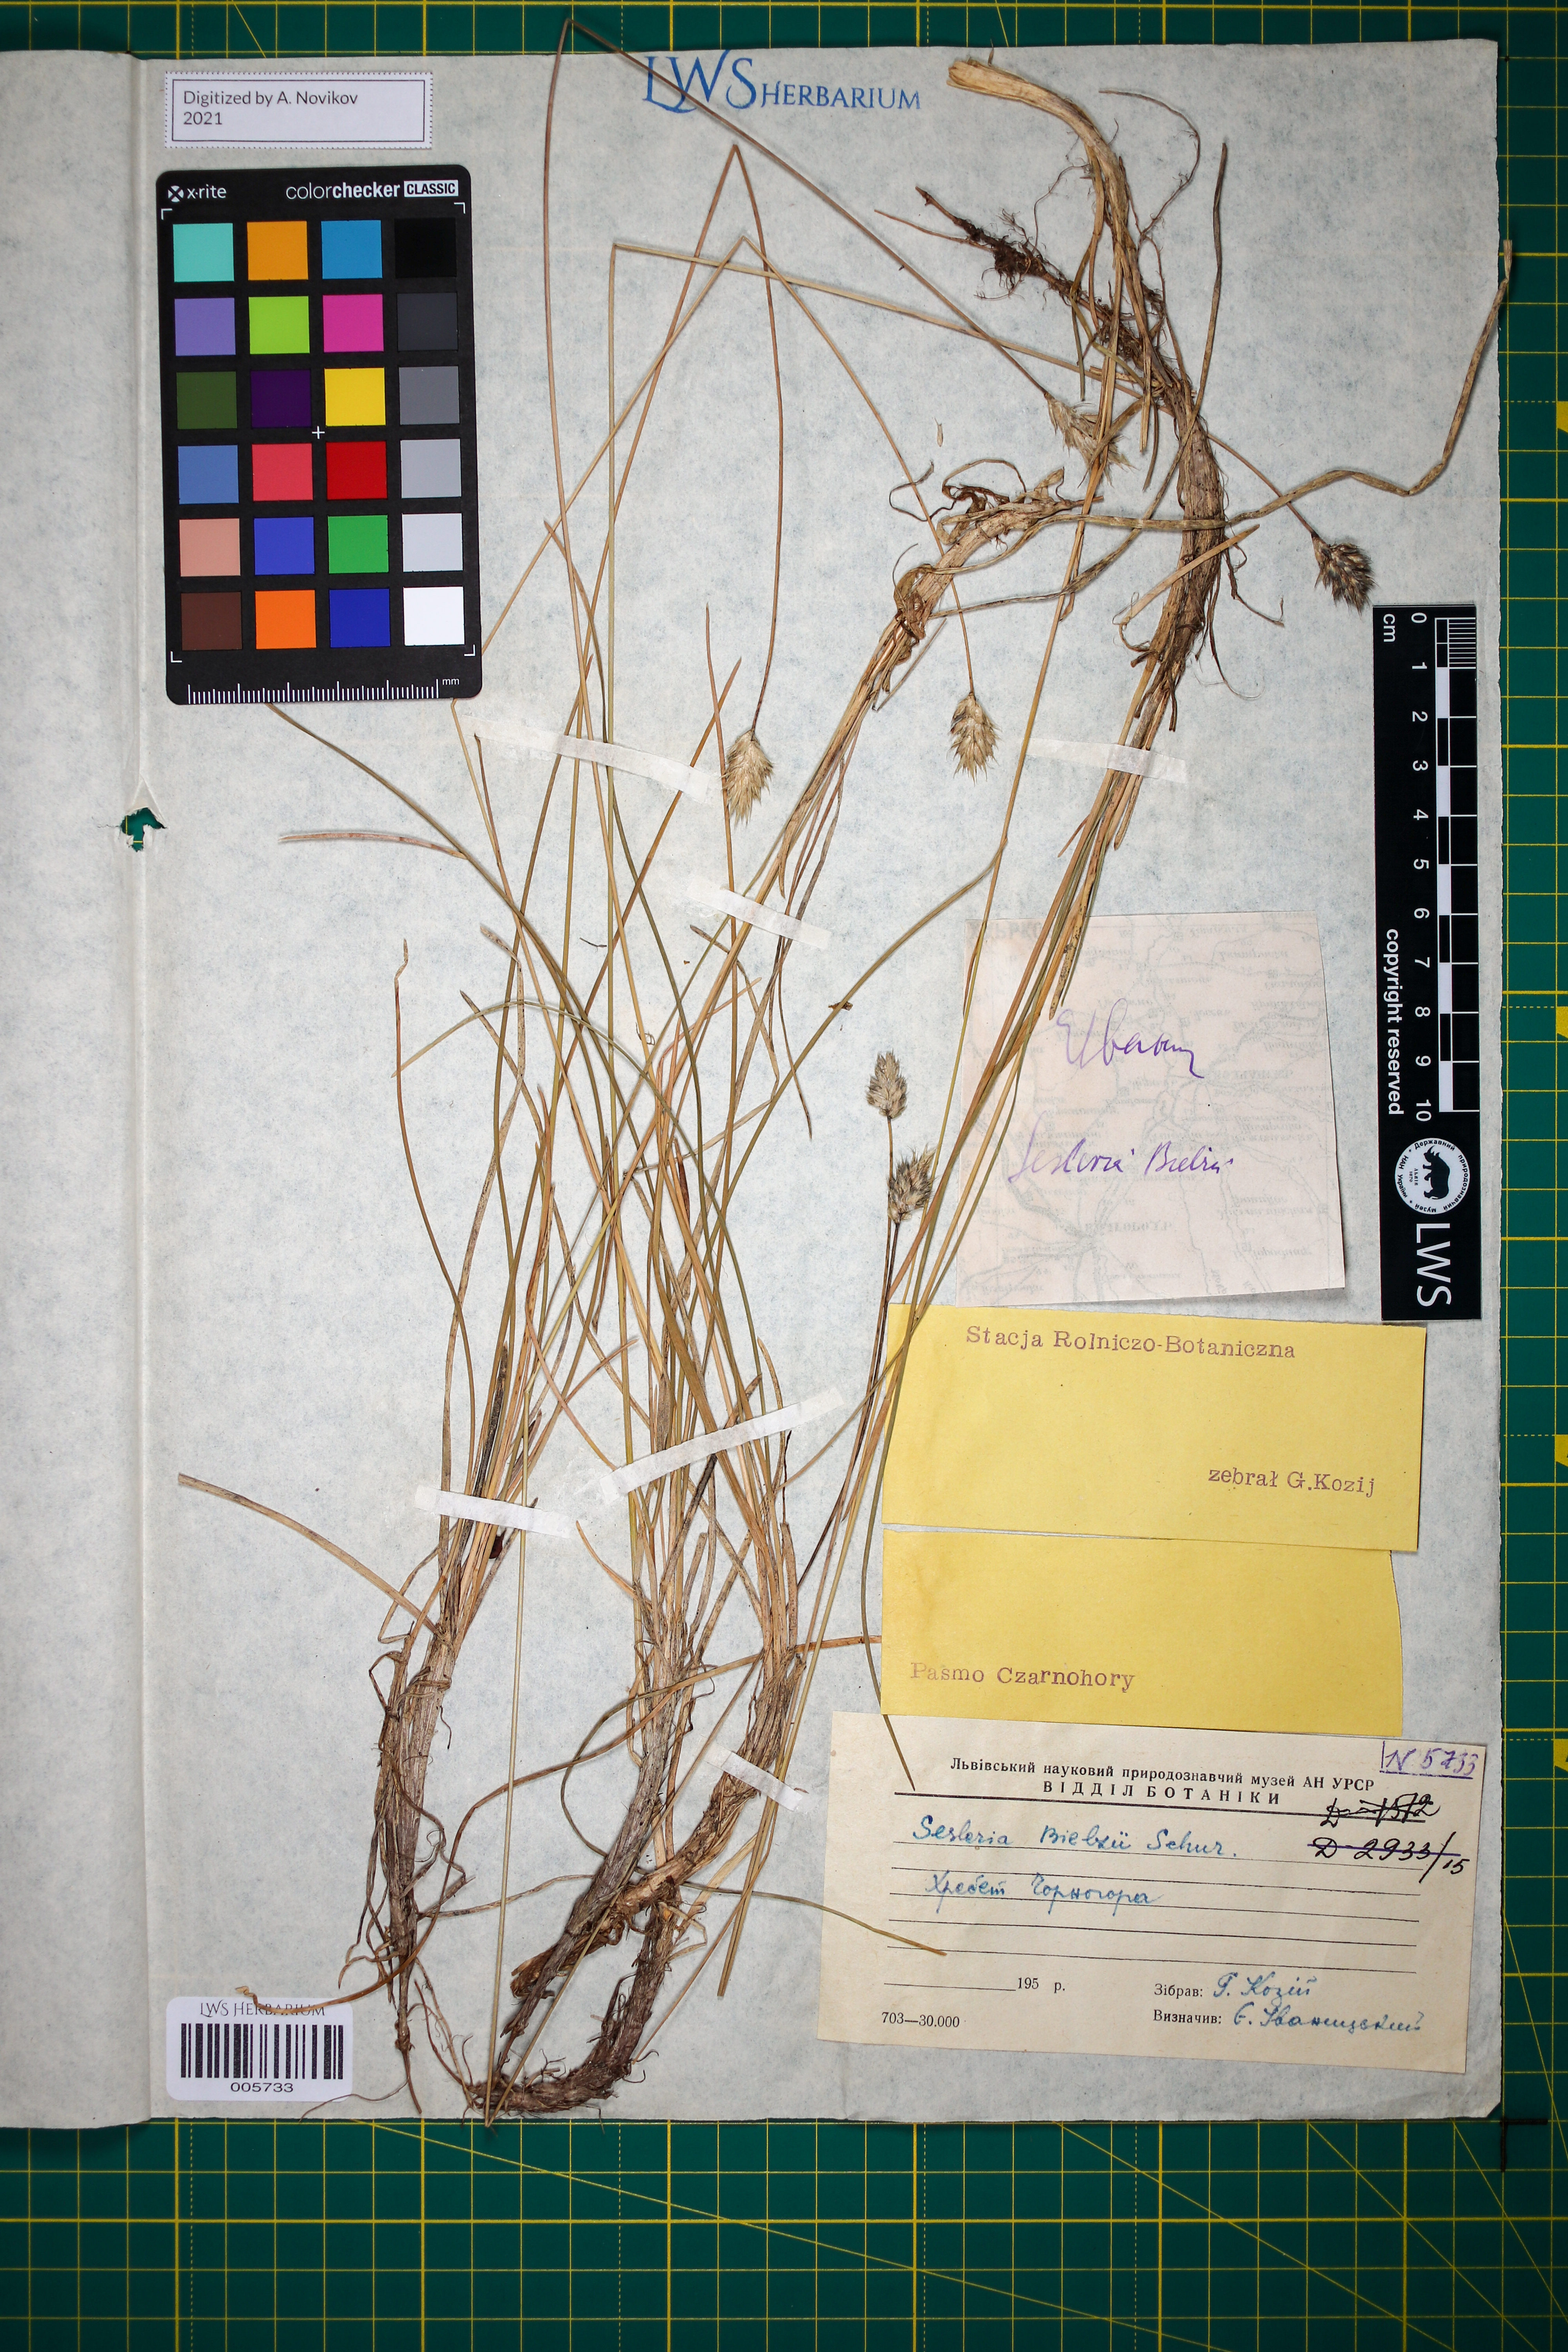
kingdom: Plantae
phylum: Tracheophyta
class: Liliopsida
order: Poales
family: Poaceae
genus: Sesleria
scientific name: Sesleria bielzii
